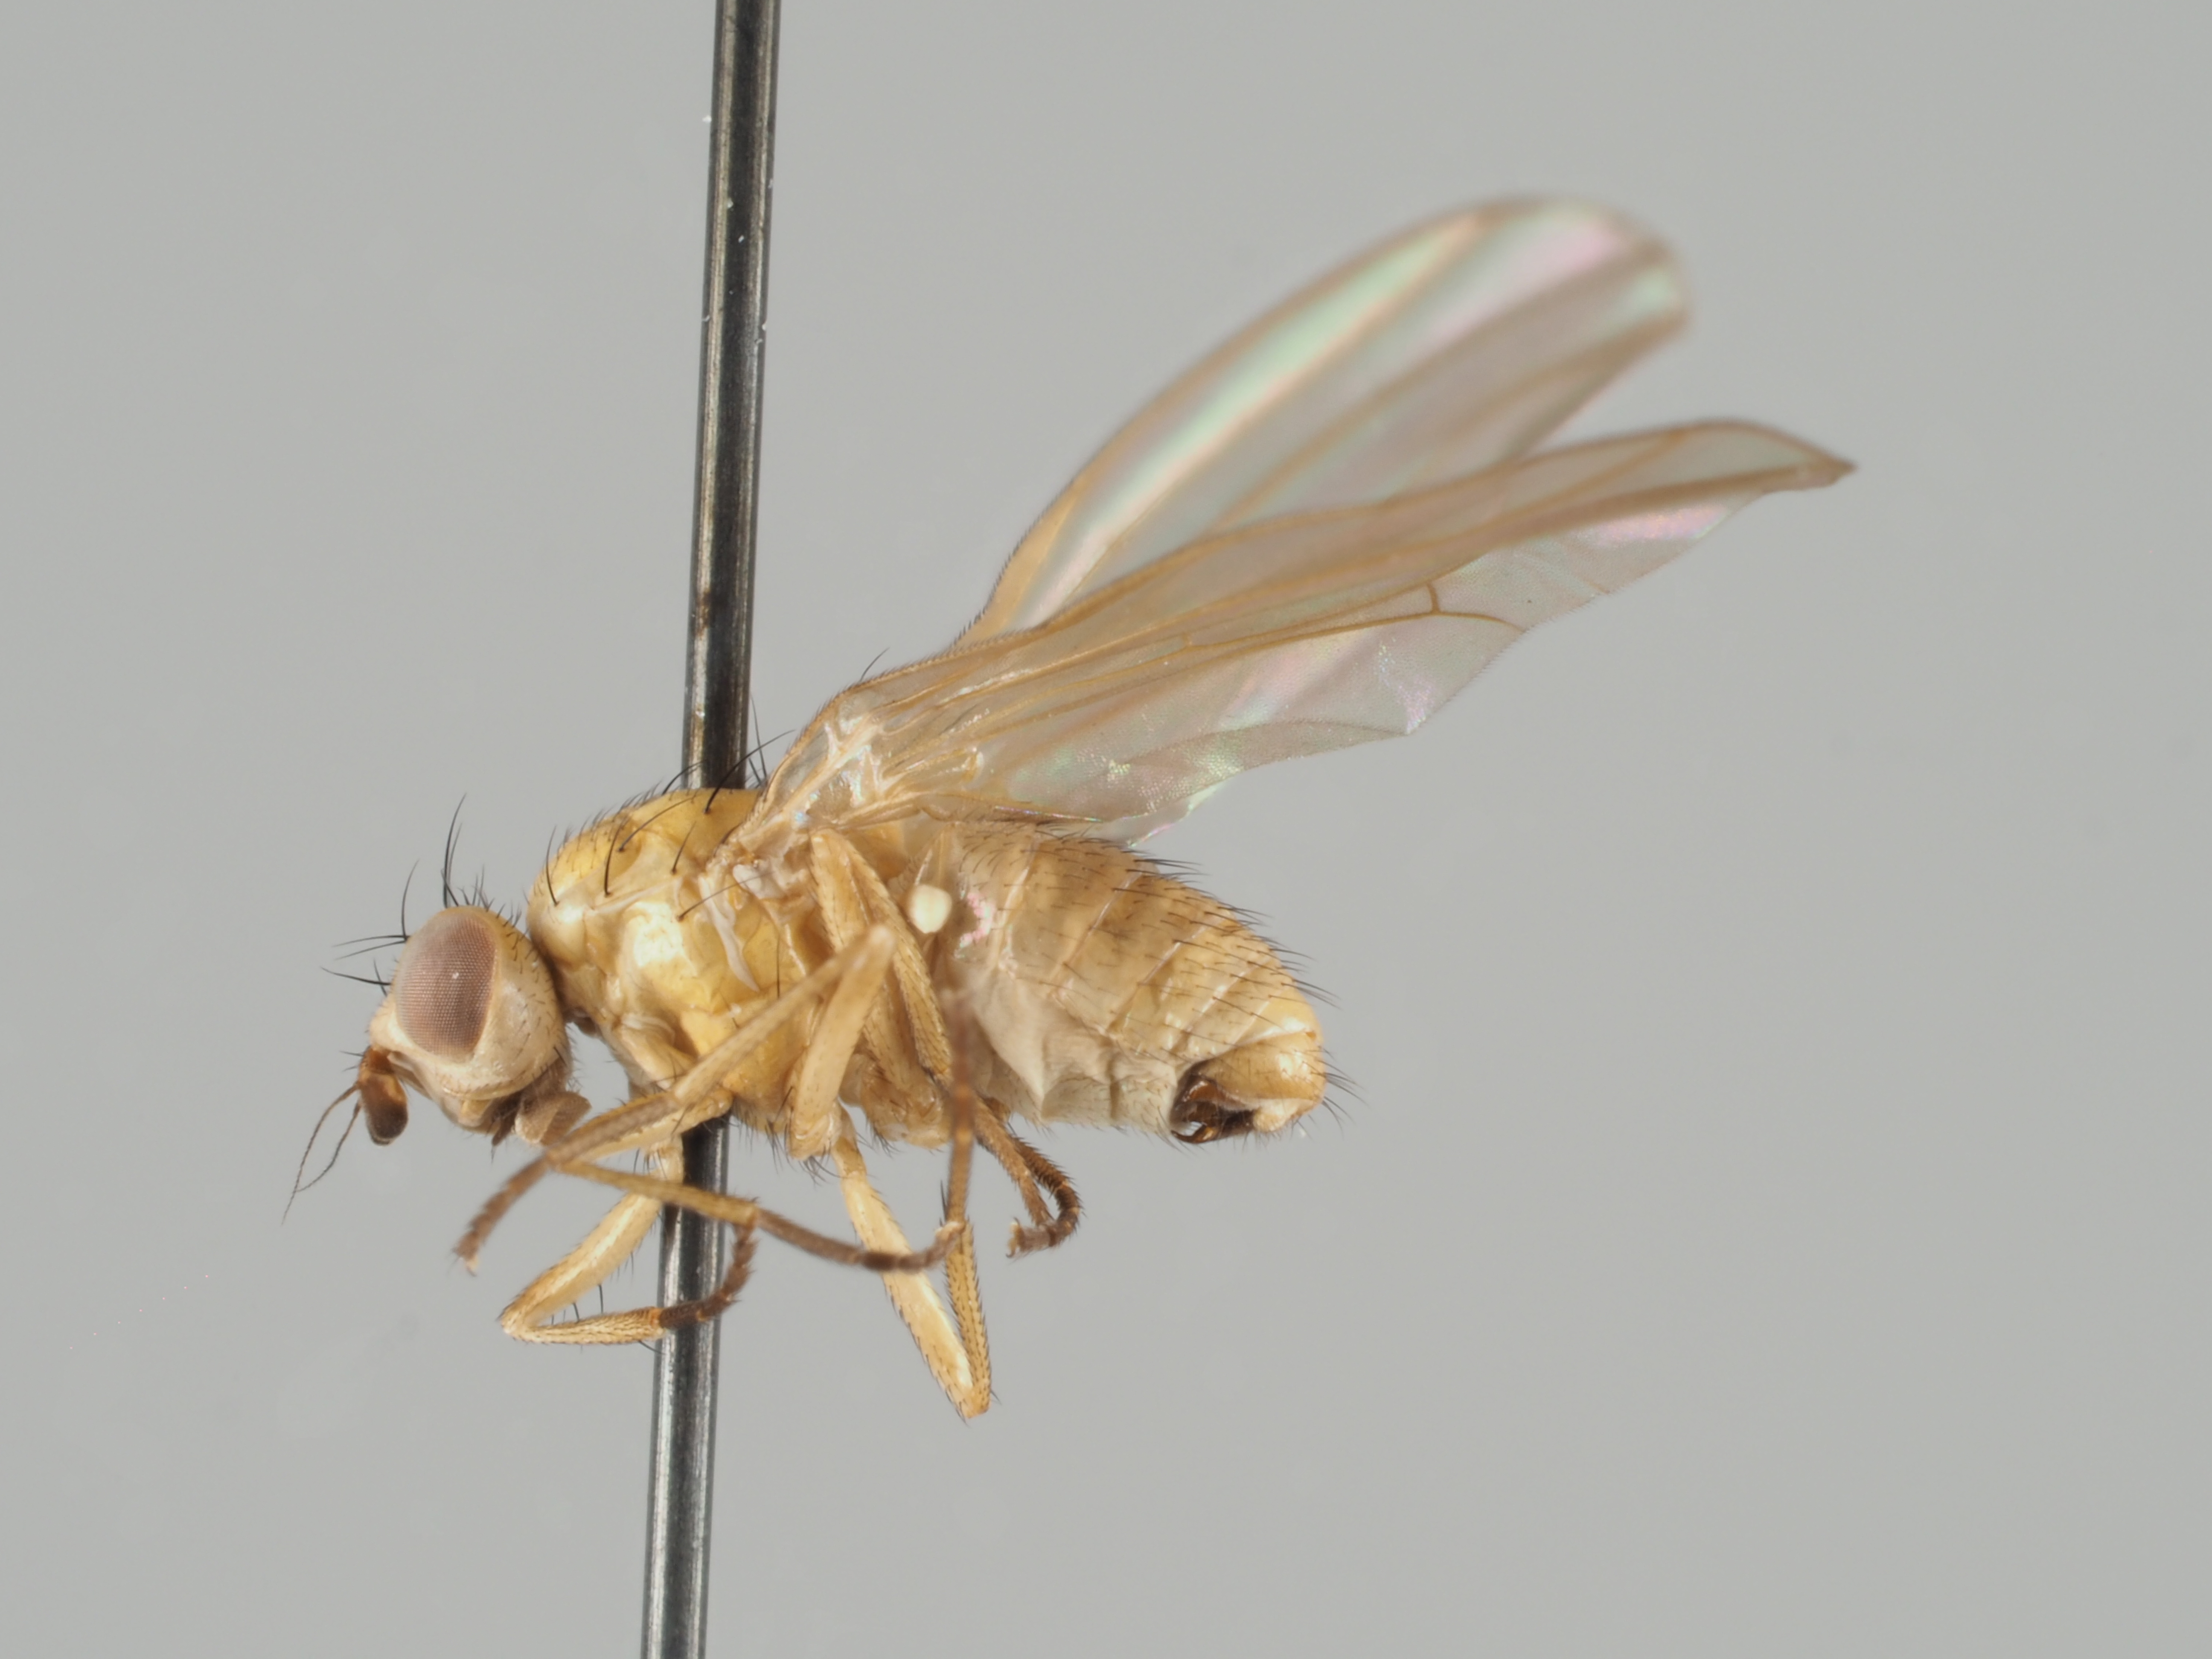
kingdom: Animalia
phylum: Arthropoda
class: Insecta
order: Diptera
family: Lauxaniidae
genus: Sapromyza
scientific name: Sapromyza amabilis
